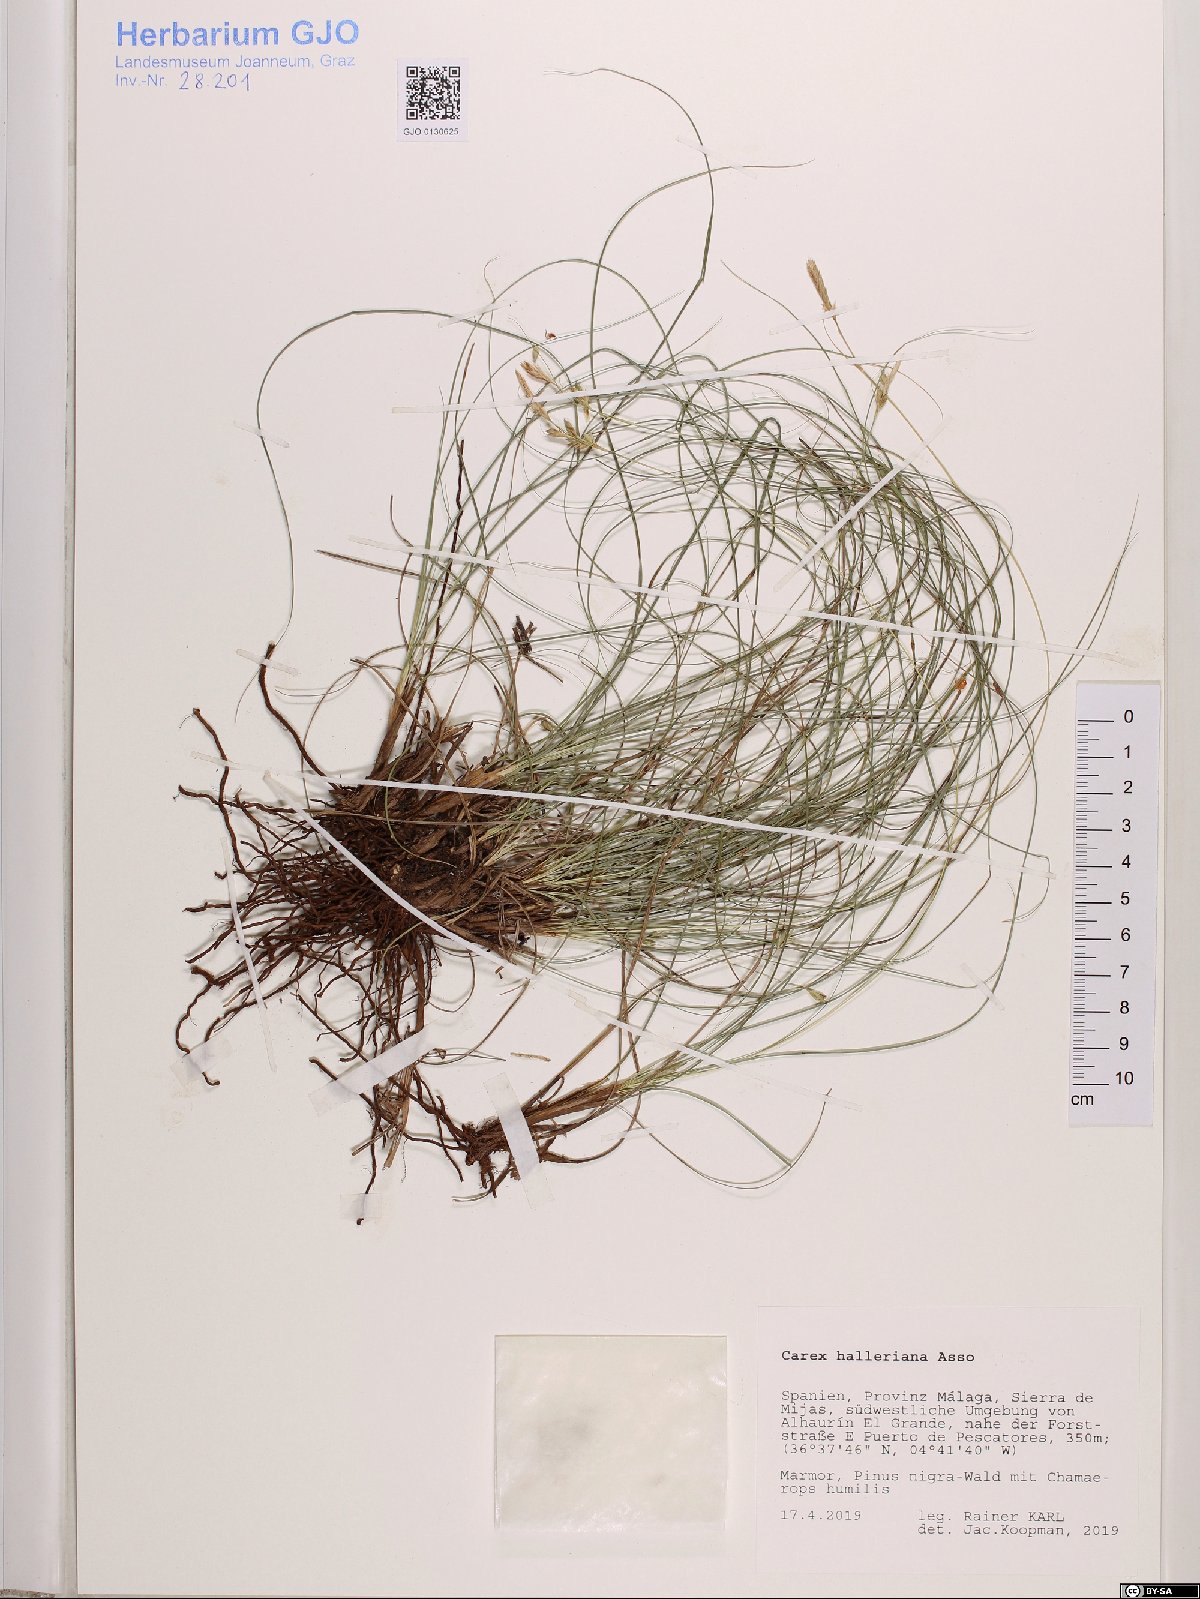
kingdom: Plantae
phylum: Tracheophyta
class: Liliopsida
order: Poales
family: Cyperaceae
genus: Carex
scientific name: Carex halleriana
